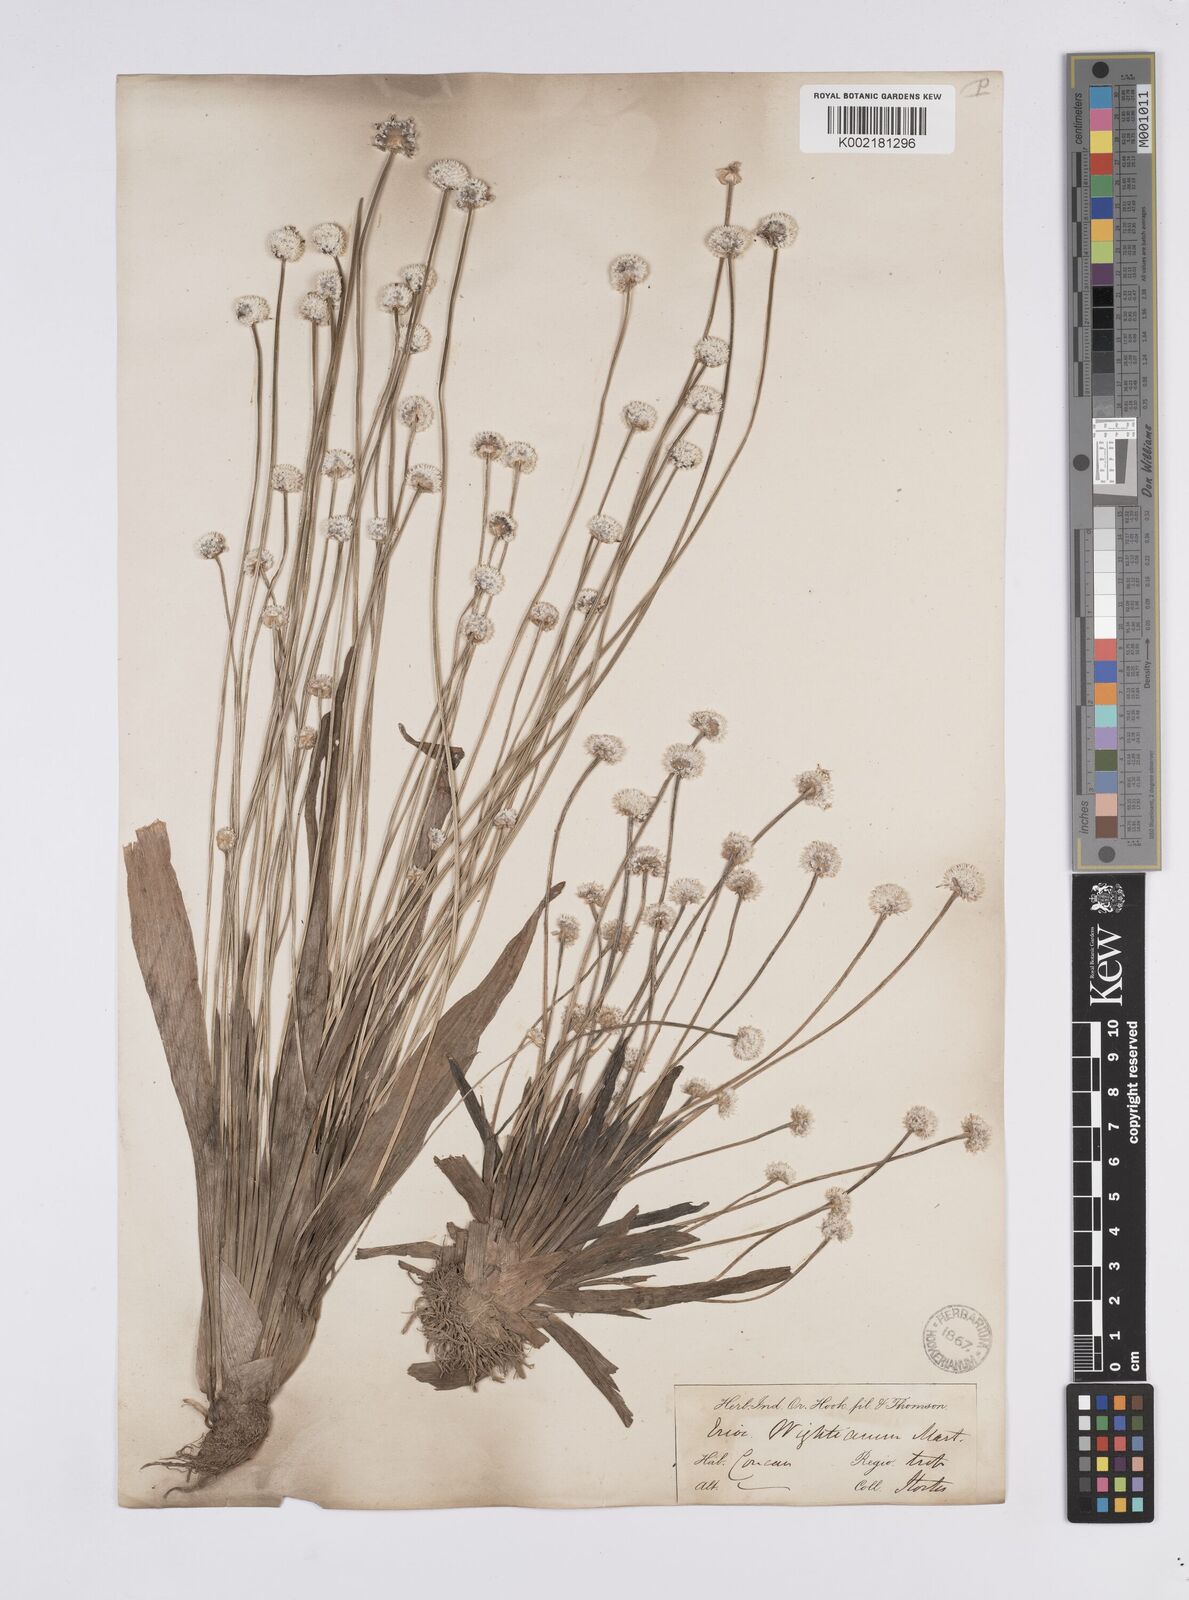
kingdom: Plantae
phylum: Tracheophyta
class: Liliopsida
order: Poales
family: Eriocaulaceae
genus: Eriocaulon
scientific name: Eriocaulon robustobrownianum
